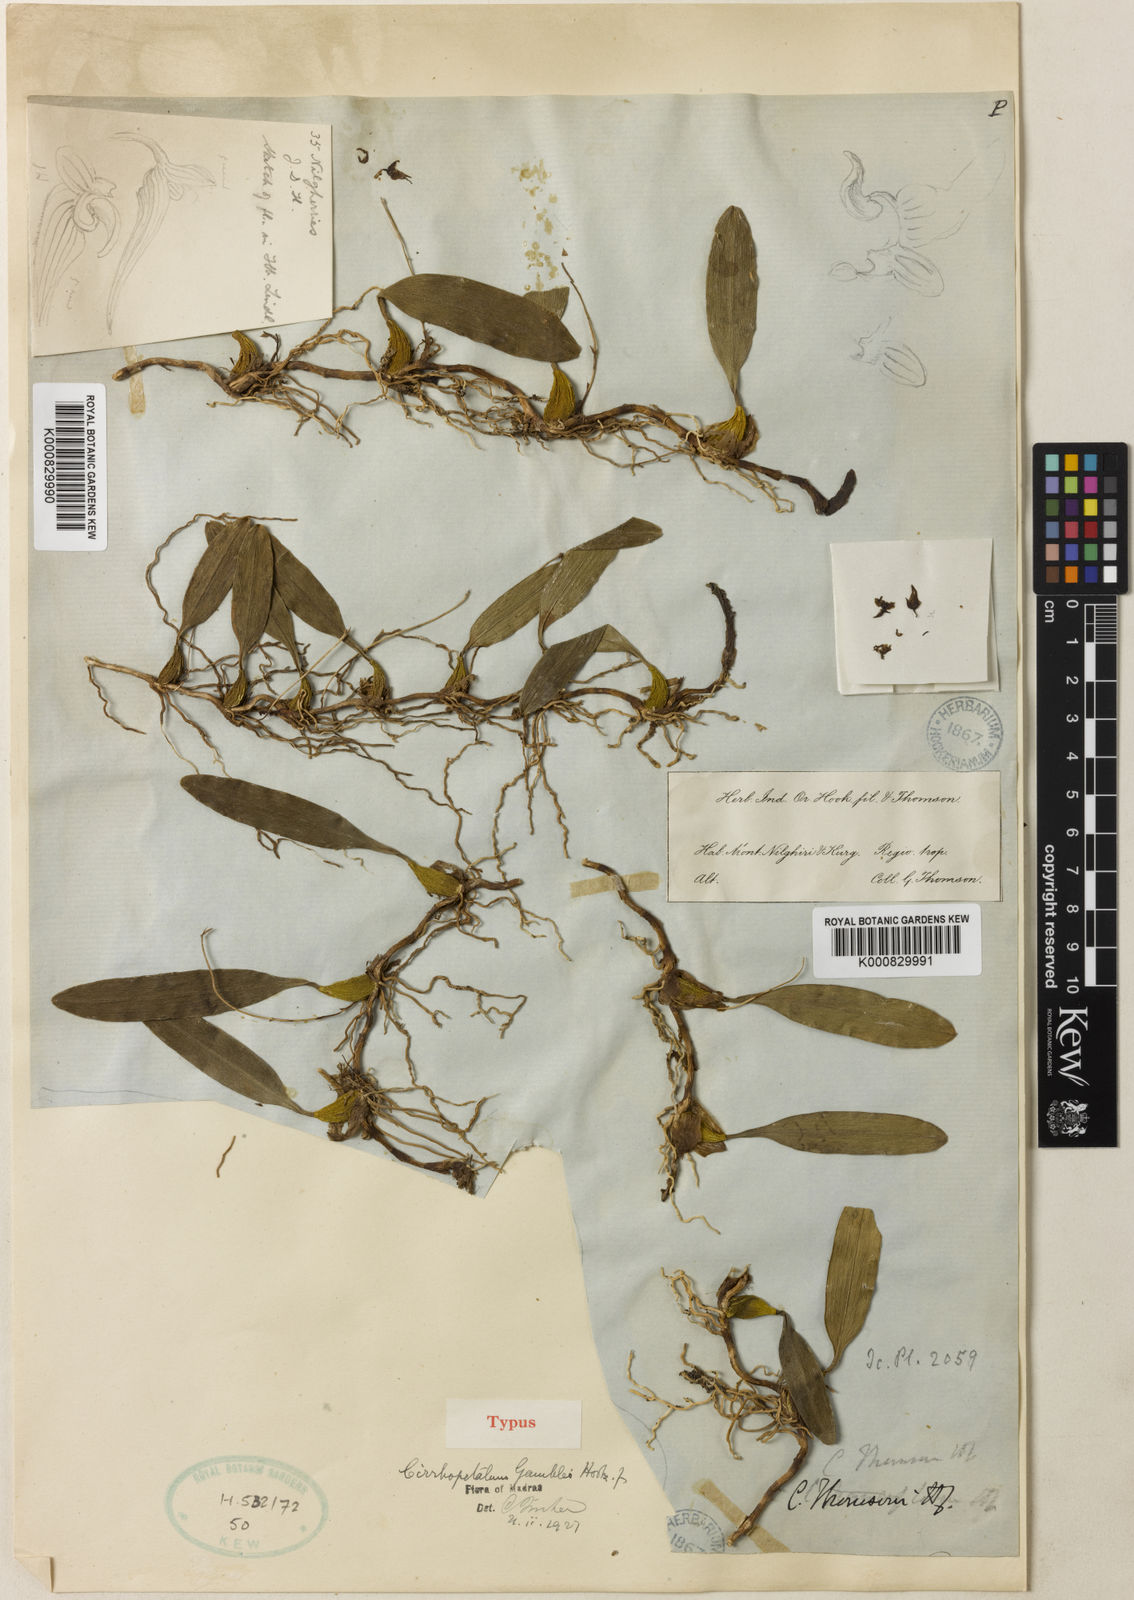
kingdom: Plantae
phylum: Tracheophyta
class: Liliopsida
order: Asparagales
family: Orchidaceae
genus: Bulbophyllum
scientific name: Bulbophyllum fischeri
